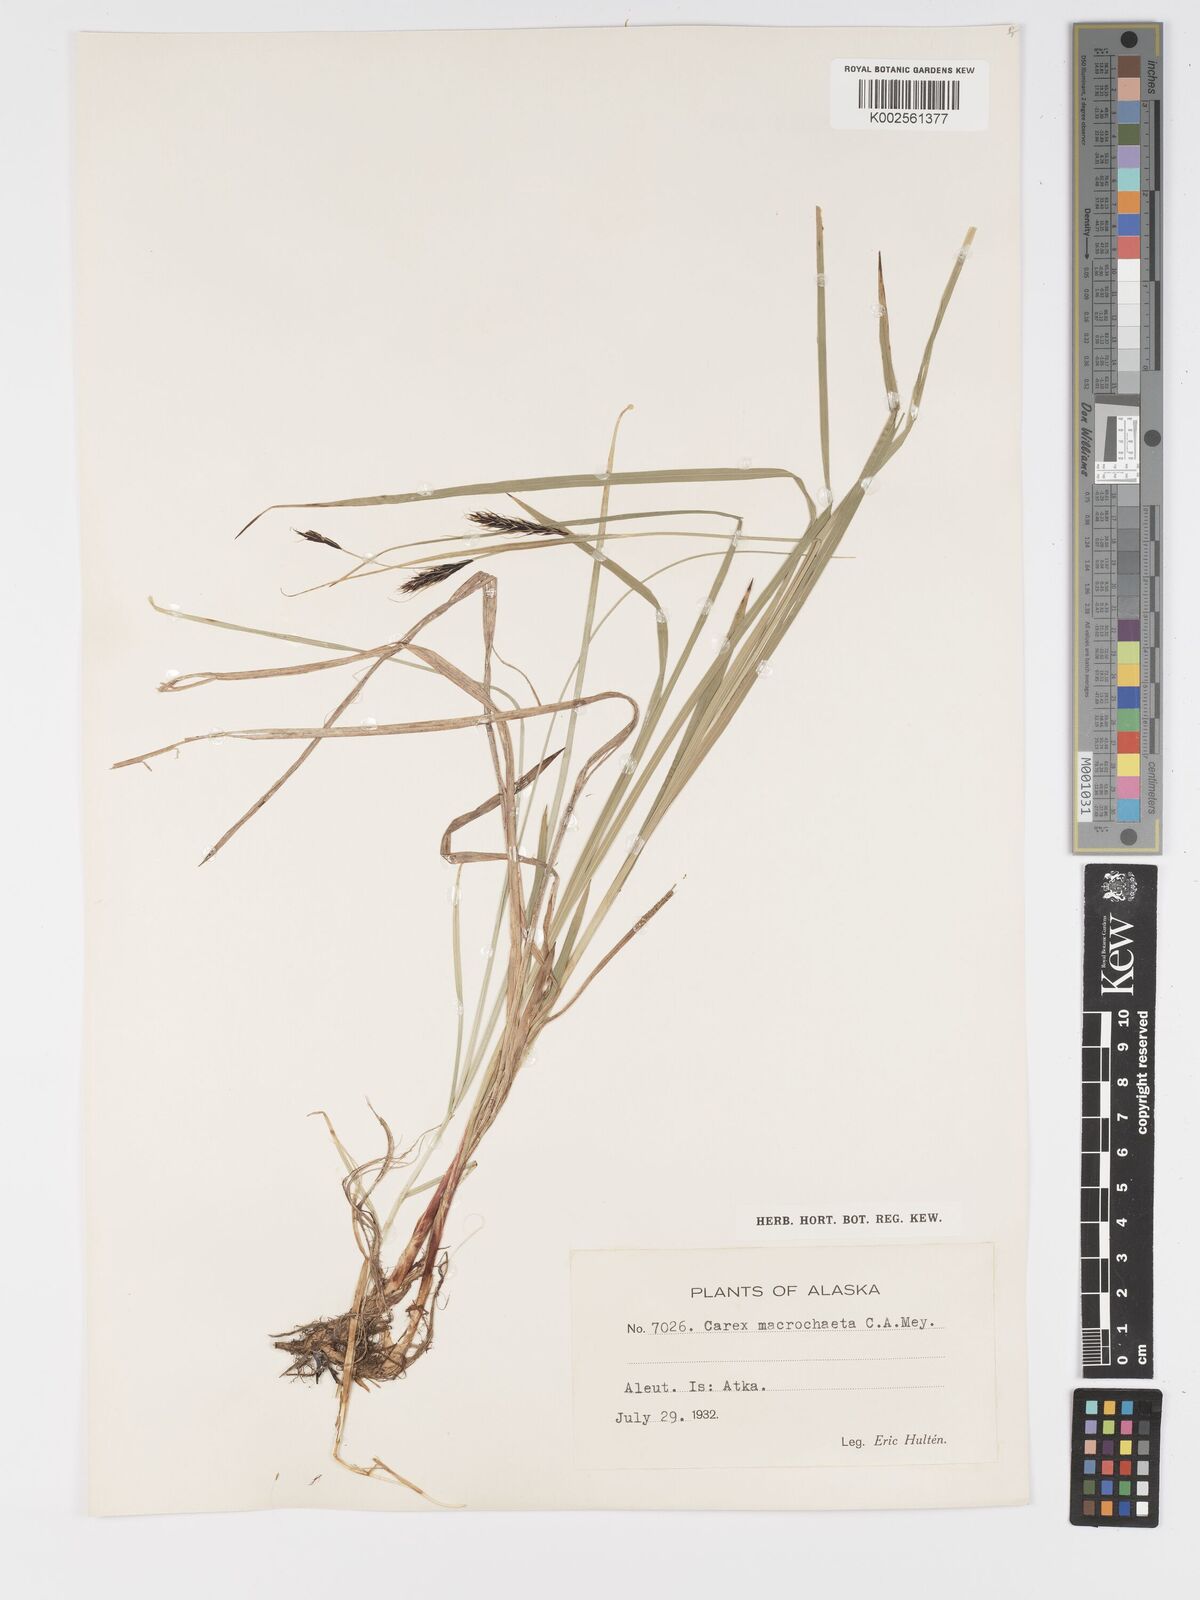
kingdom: Plantae
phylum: Tracheophyta
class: Liliopsida
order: Poales
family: Cyperaceae
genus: Carex
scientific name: Carex macrochaeta
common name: Alaska large awn sedge
